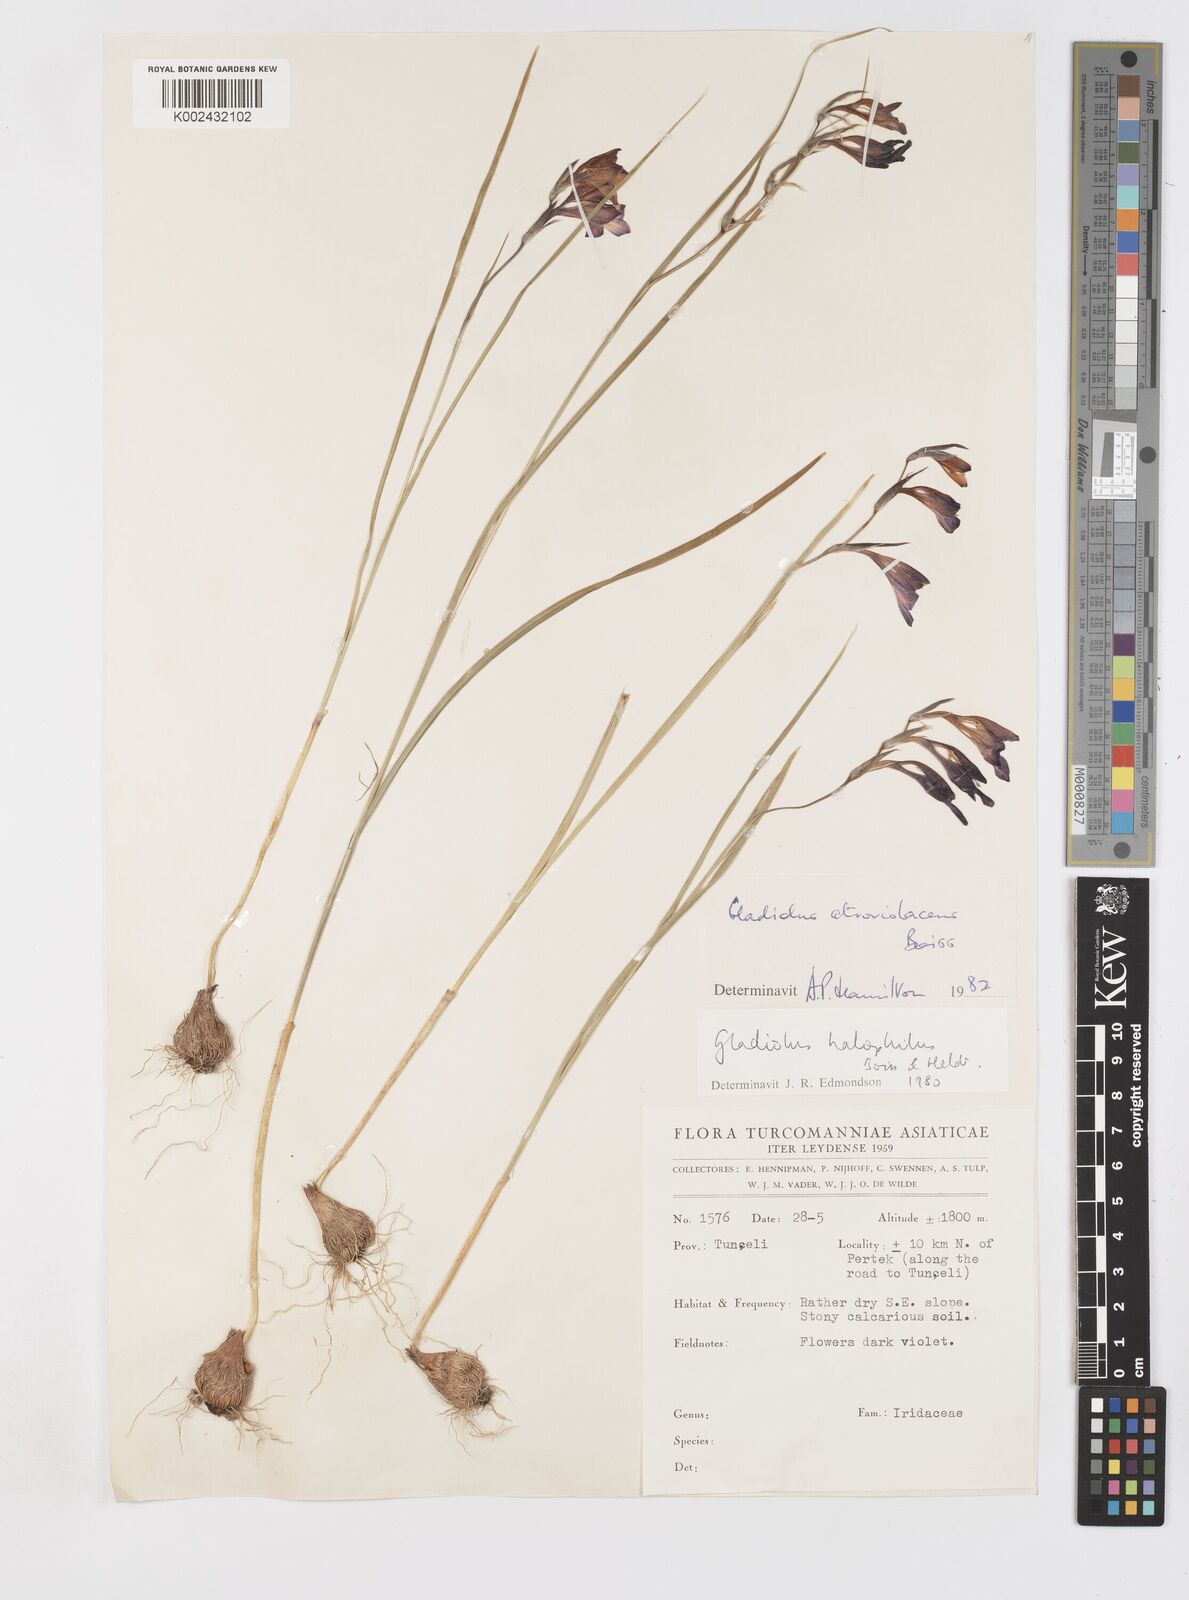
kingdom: Plantae
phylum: Tracheophyta
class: Liliopsida
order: Asparagales
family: Iridaceae
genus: Gladiolus
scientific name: Gladiolus atroviolaceus
